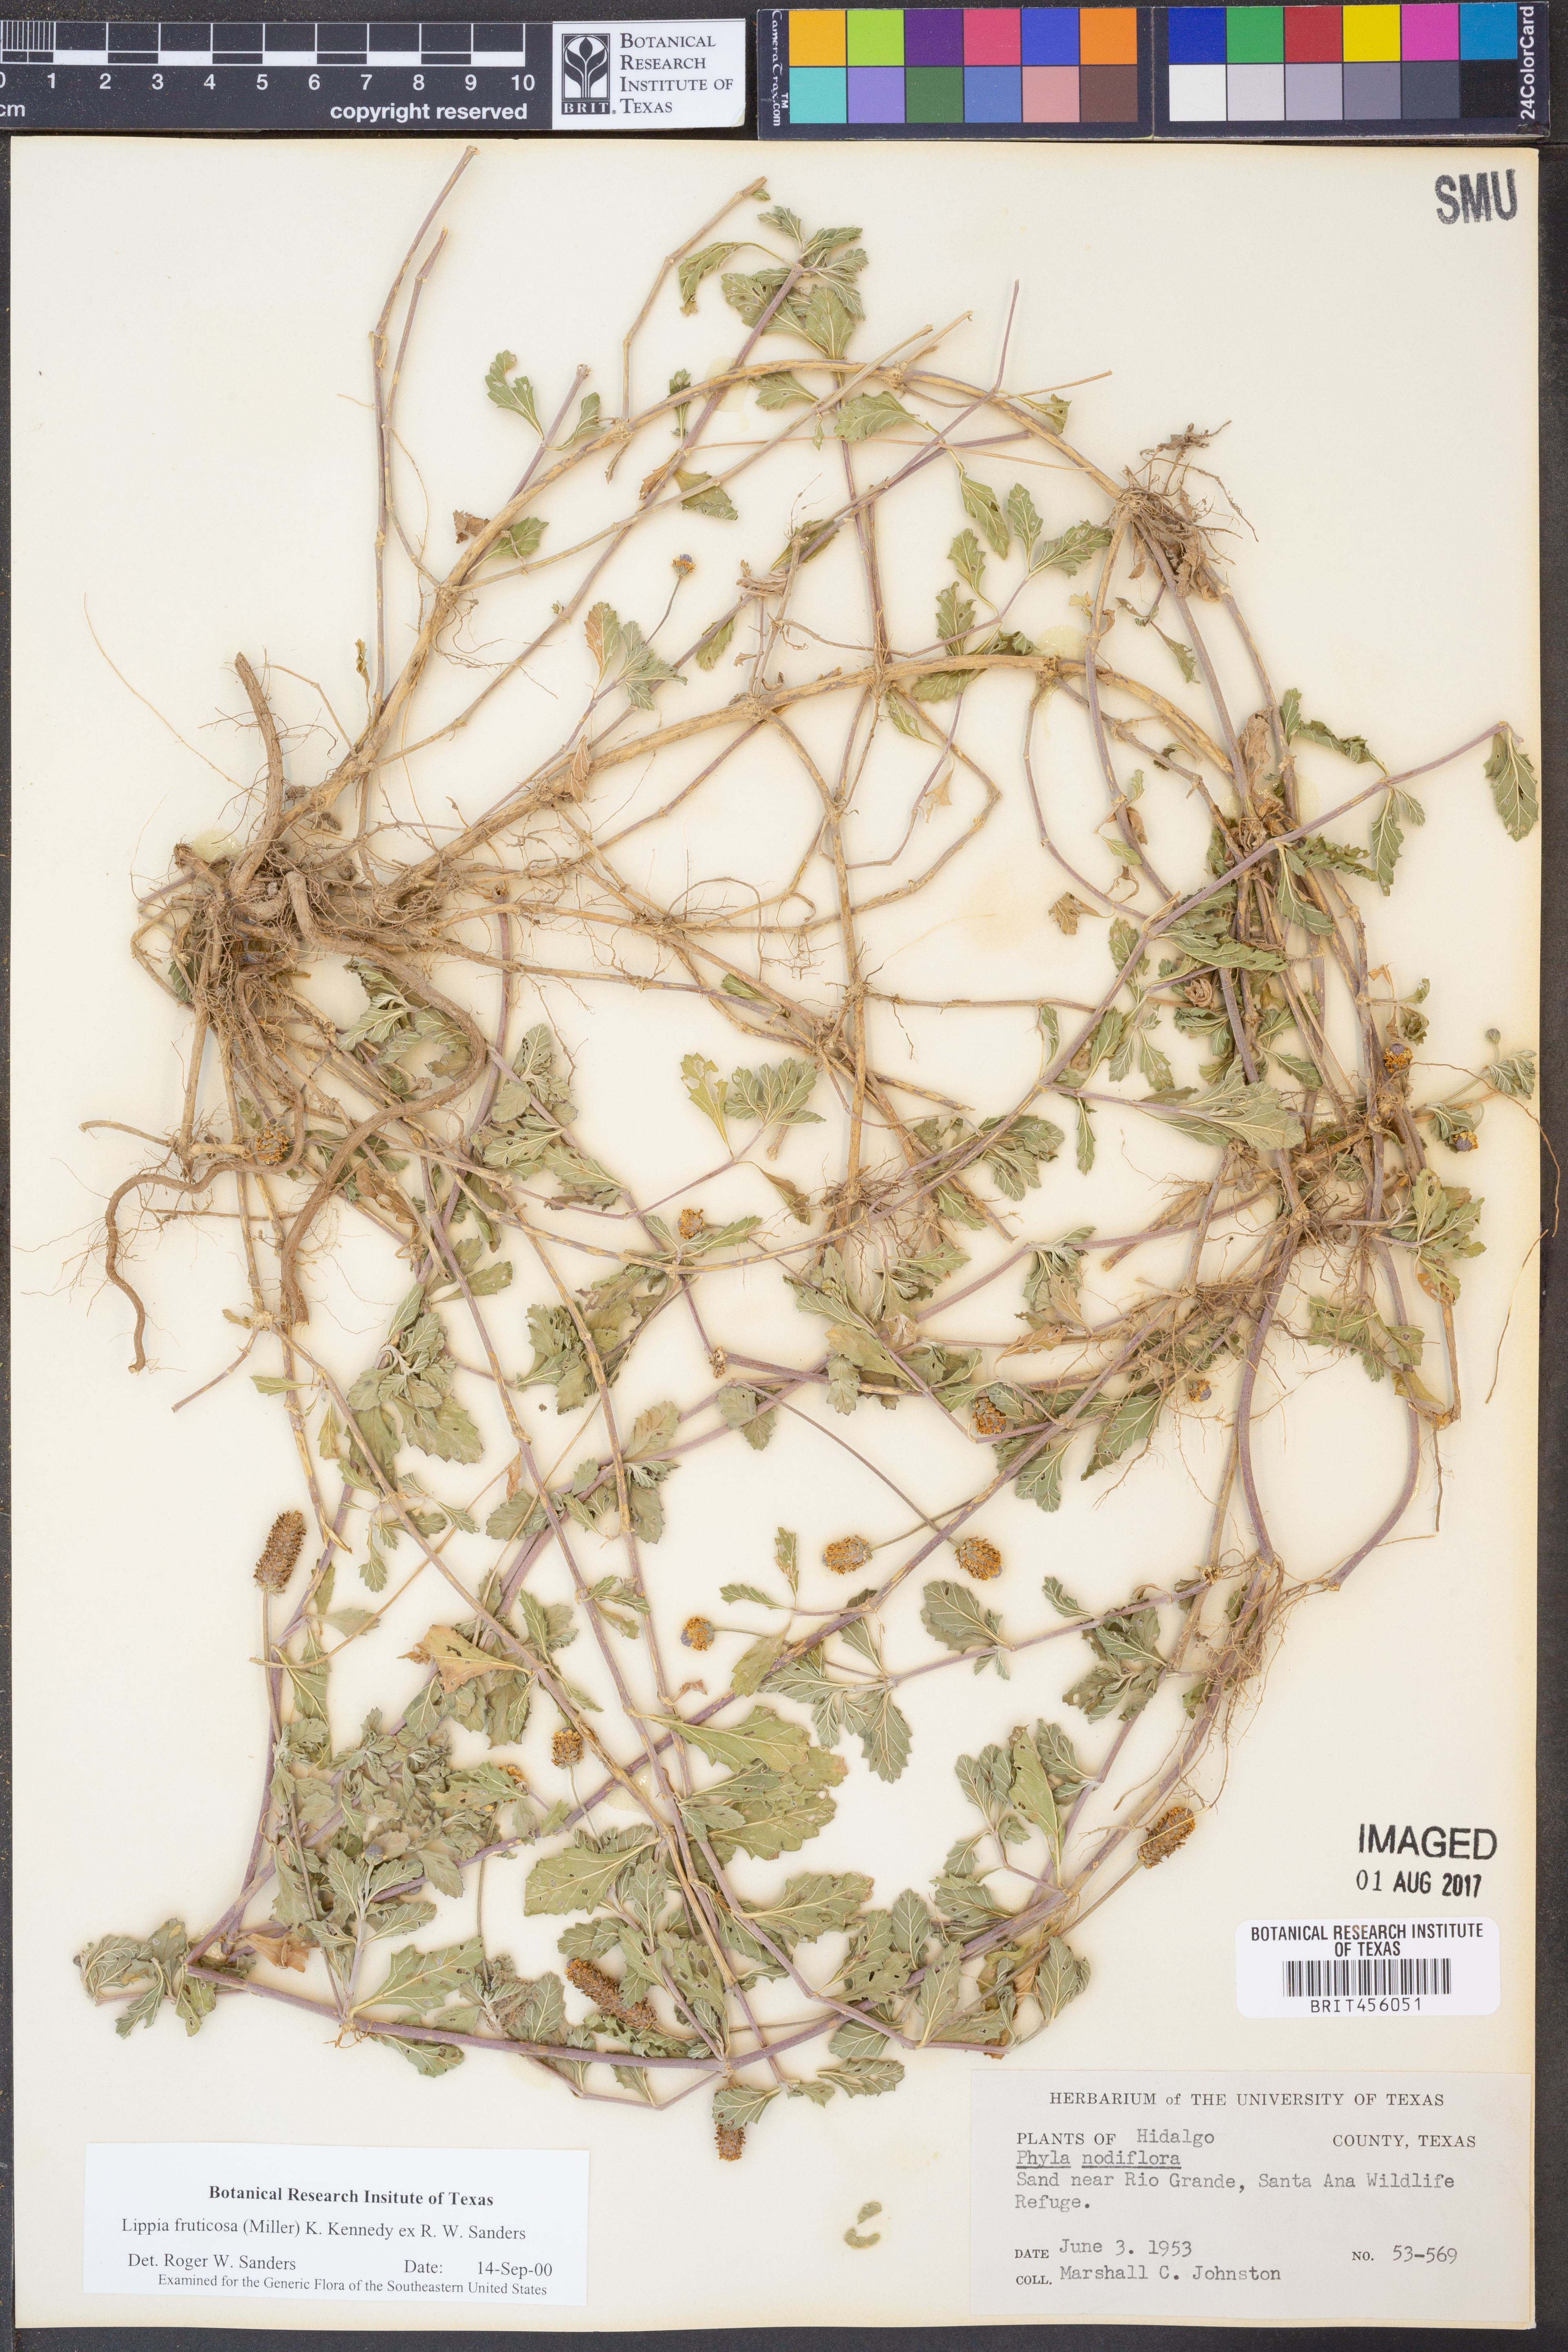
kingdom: Plantae
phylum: Tracheophyta
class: Magnoliopsida
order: Lamiales
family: Verbenaceae
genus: Phyla
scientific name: Phyla nodiflora
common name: Frogfruit
